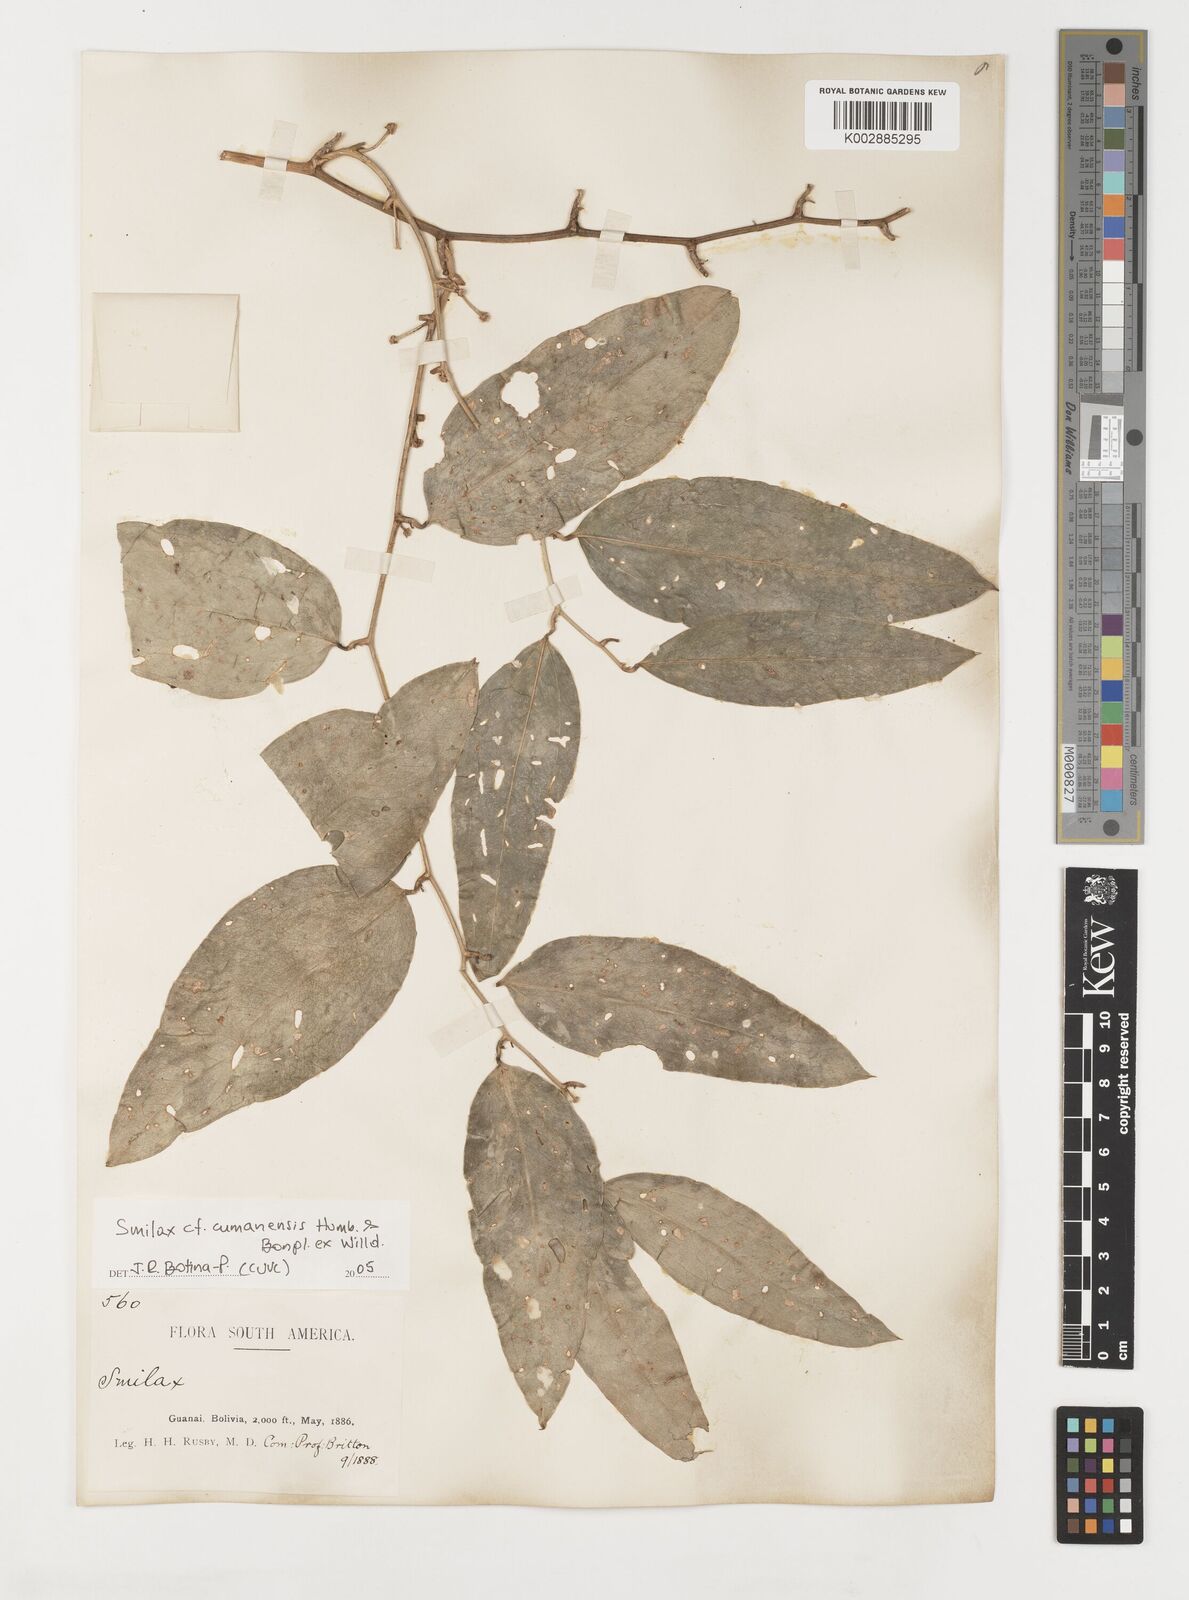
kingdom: Plantae
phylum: Tracheophyta
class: Liliopsida
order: Liliales
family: Smilacaceae
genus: Smilax
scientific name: Smilax oblongata
